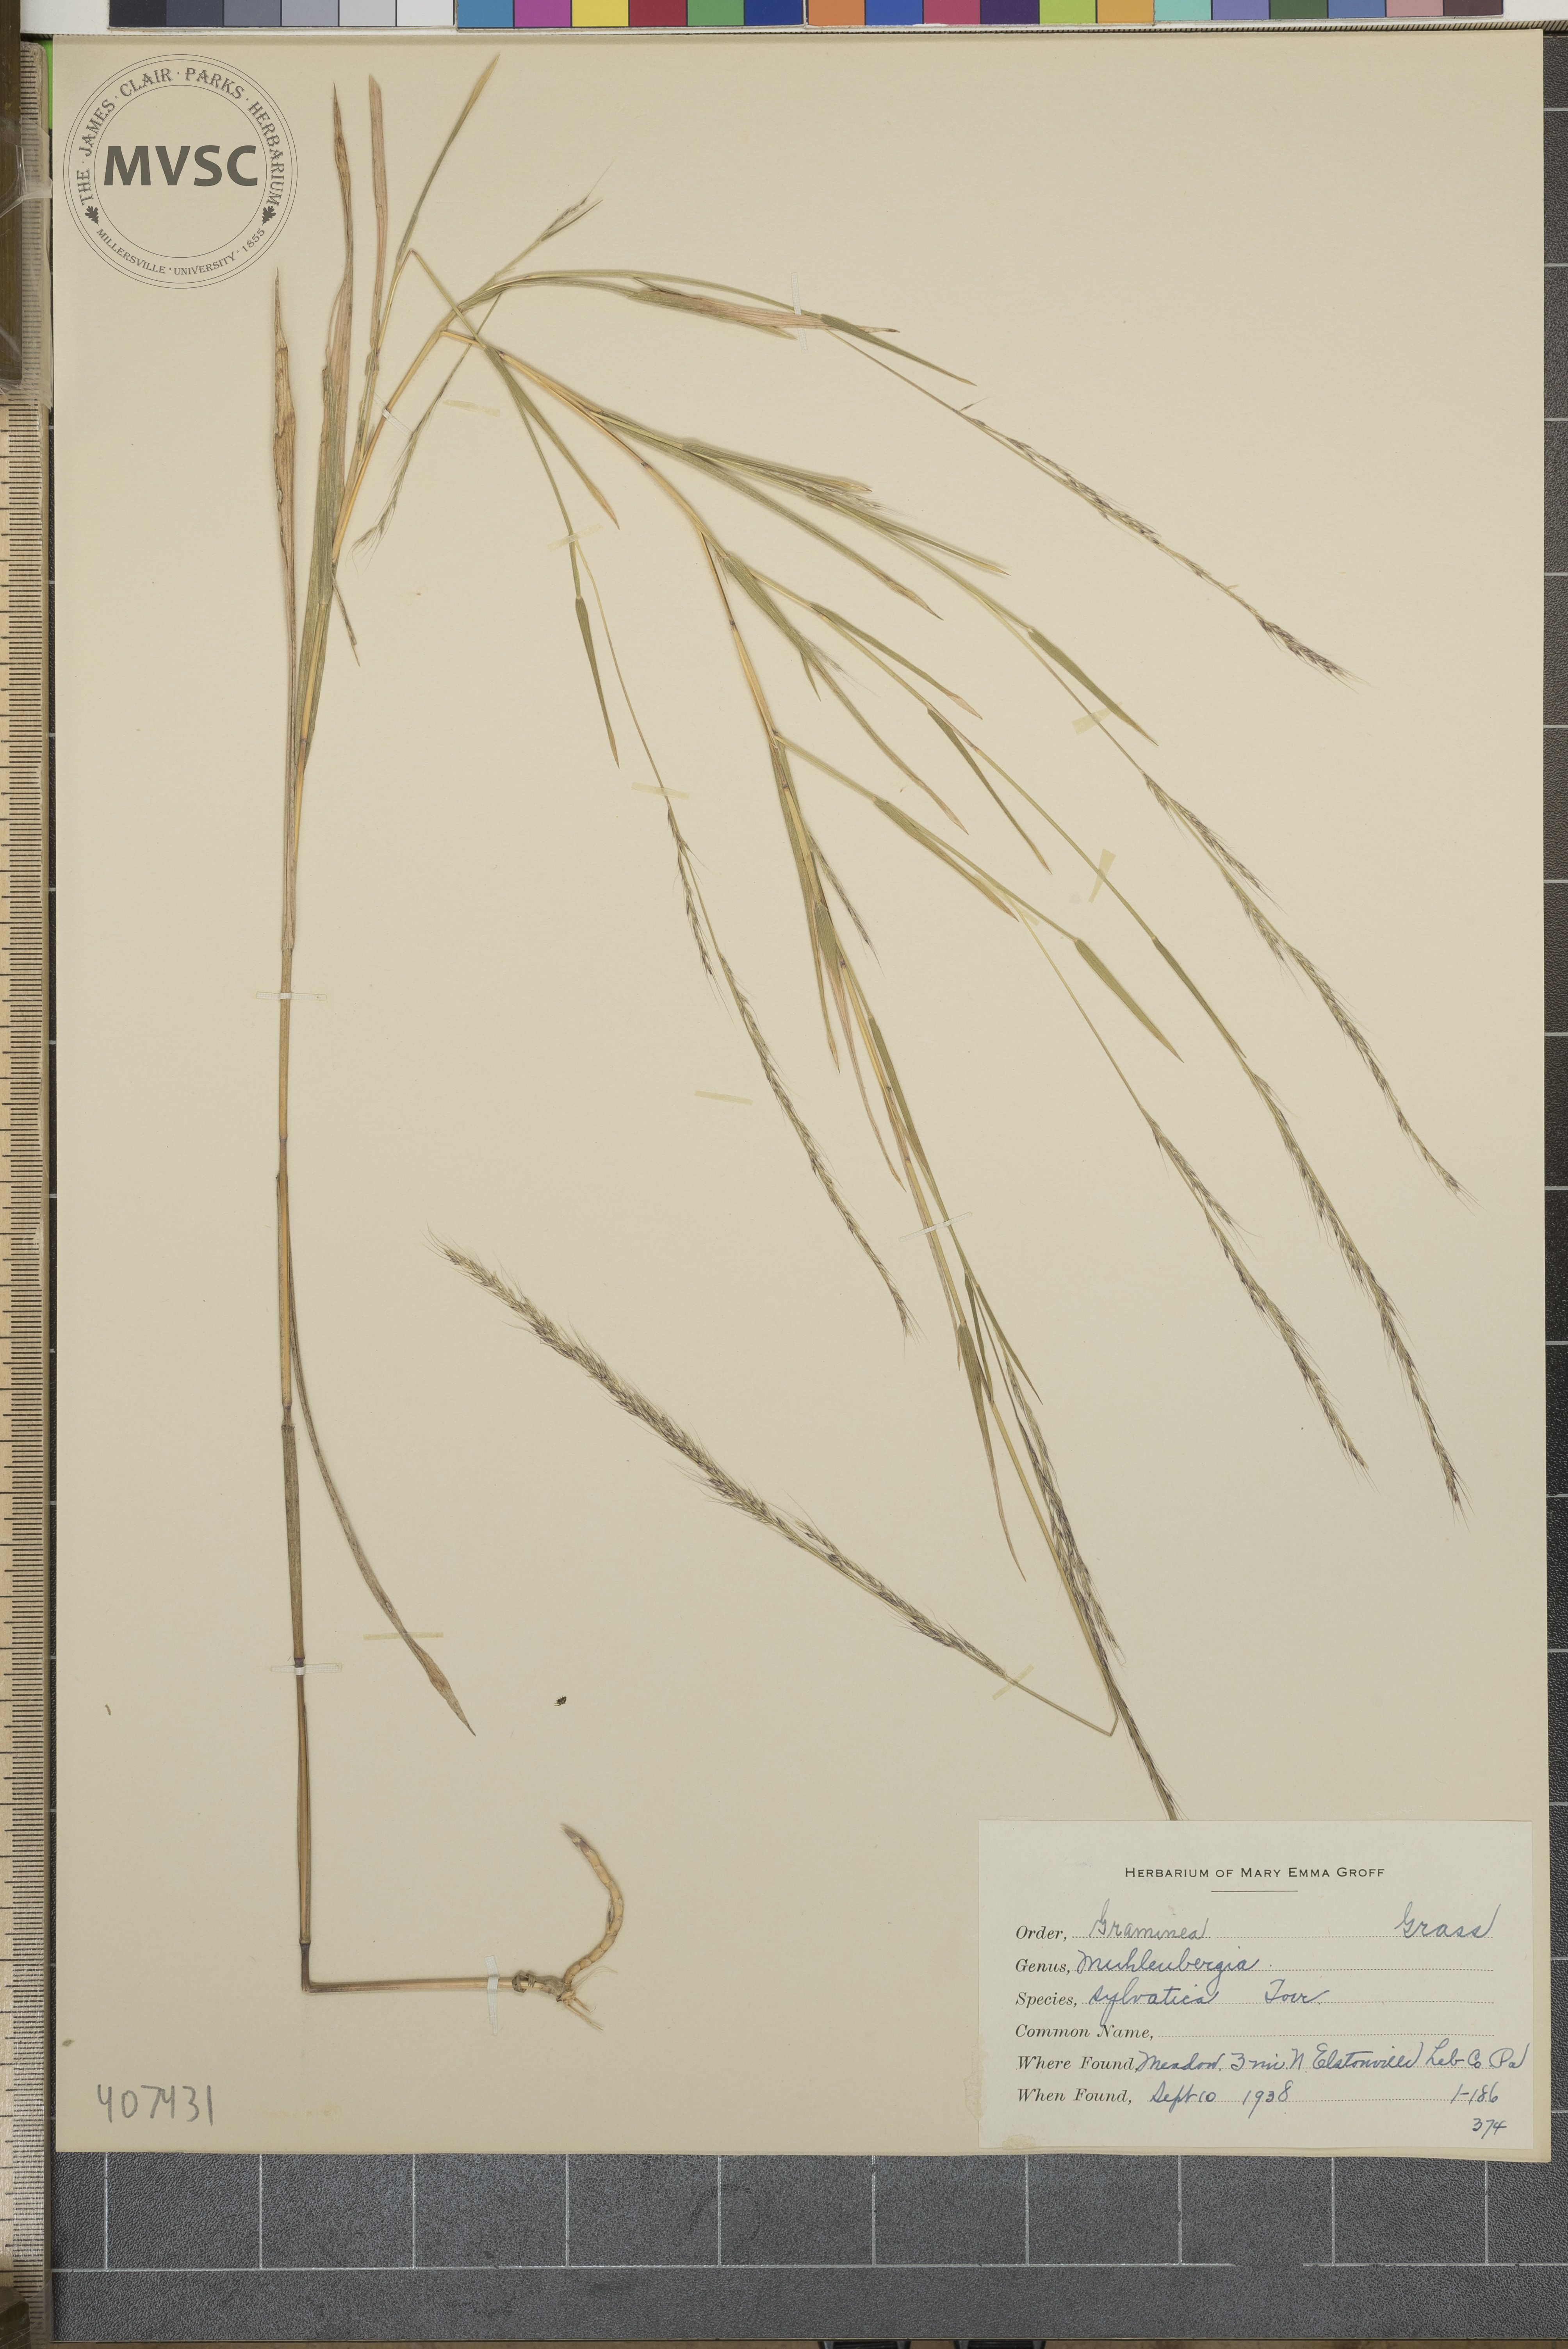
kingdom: Plantae
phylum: Tracheophyta
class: Liliopsida
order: Poales
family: Poaceae
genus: Muhlenbergia
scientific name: Muhlenbergia sylvatica
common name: Woodland muhly
